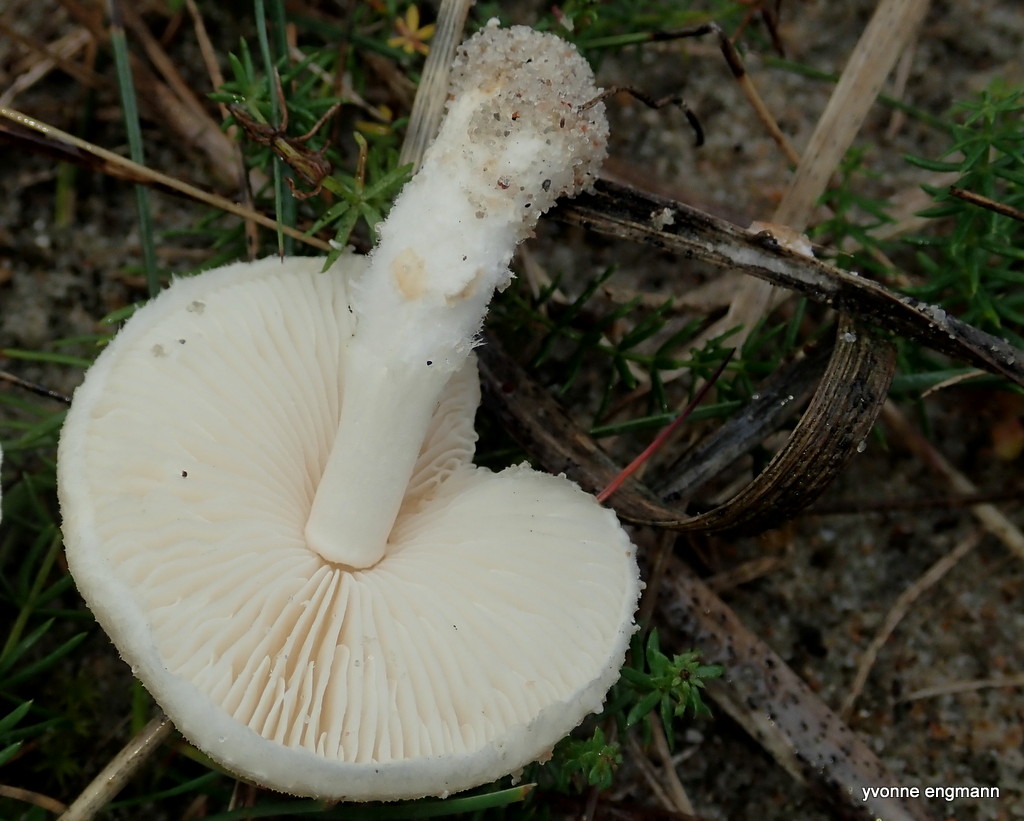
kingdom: Fungi
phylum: Basidiomycota
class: Agaricomycetes
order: Agaricales
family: Agaricaceae
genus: Lepiota
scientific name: Lepiota erminea
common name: hvid parasolhat
